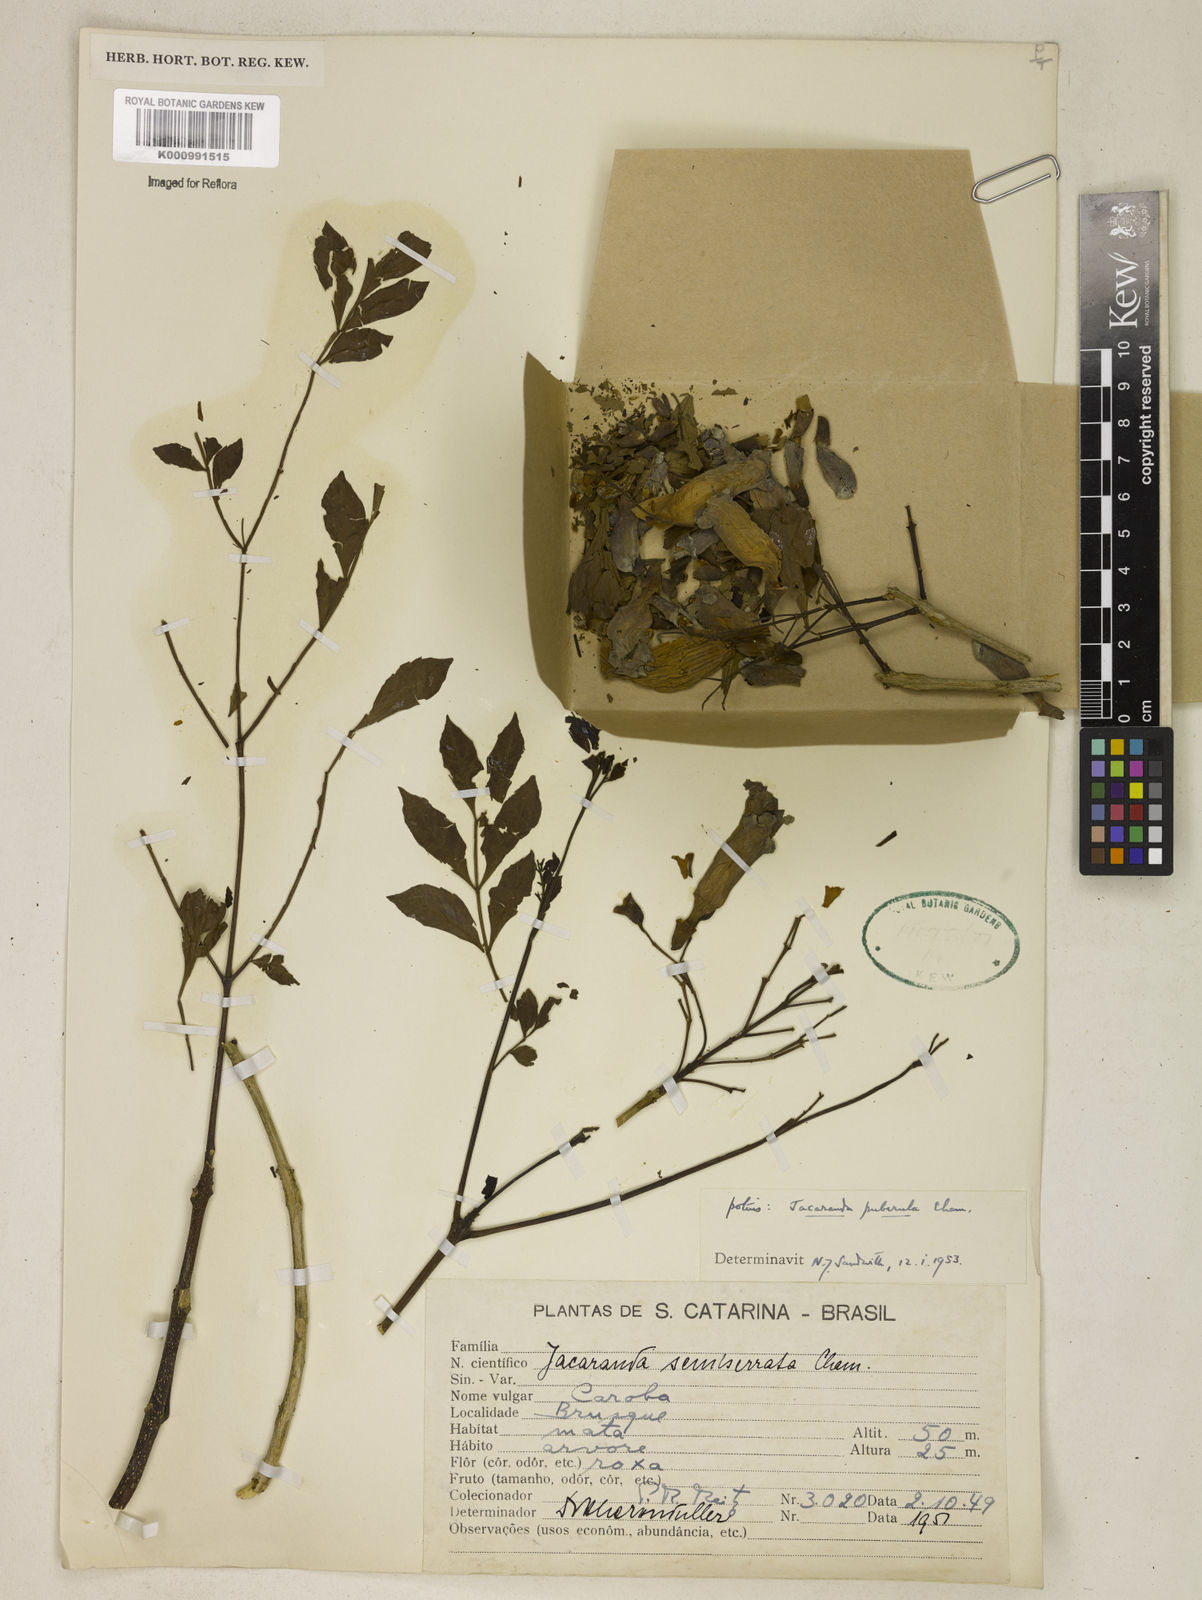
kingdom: Plantae
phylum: Tracheophyta
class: Magnoliopsida
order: Lamiales
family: Bignoniaceae
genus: Jacaranda
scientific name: Jacaranda puberula
